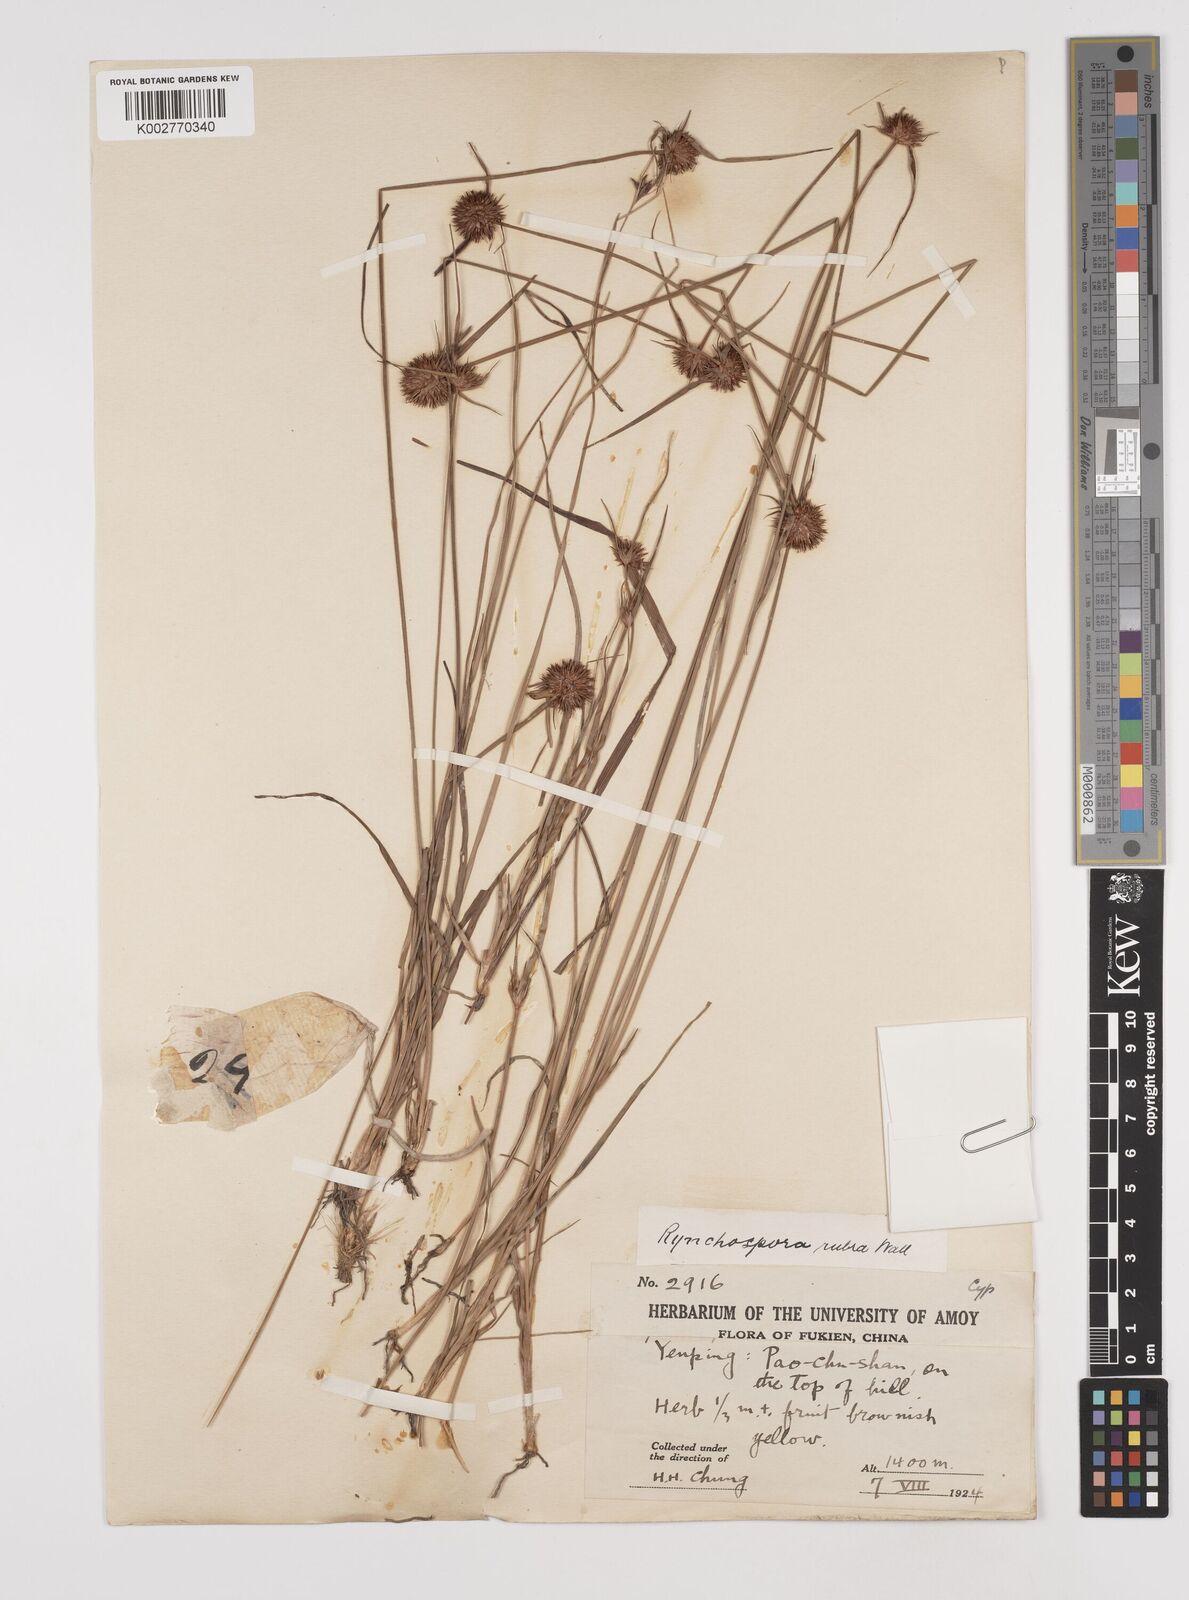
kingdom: Plantae
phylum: Tracheophyta
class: Liliopsida
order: Poales
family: Cyperaceae
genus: Rhynchospora
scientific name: Rhynchospora rubra
